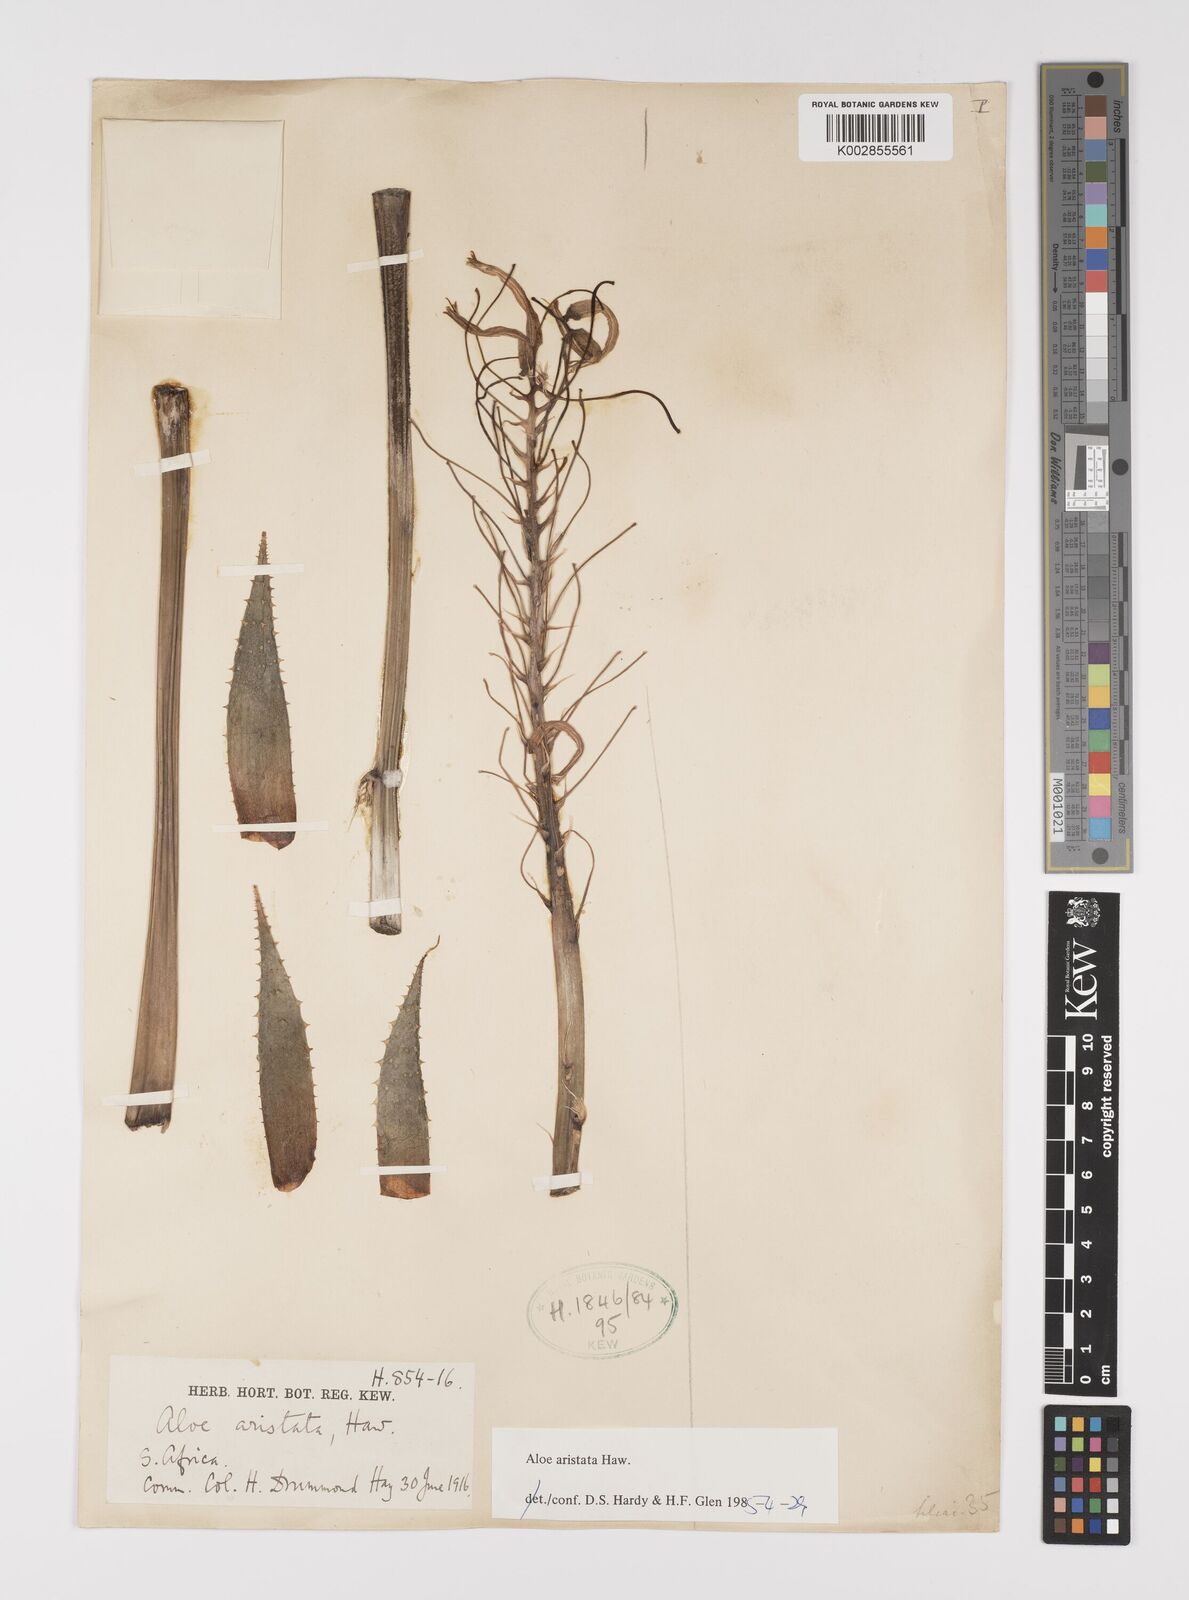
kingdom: Plantae
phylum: Tracheophyta
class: Liliopsida
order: Asparagales
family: Asphodelaceae
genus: Aristaloe
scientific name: Aristaloe aristata
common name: Guinea-fowl aloe
